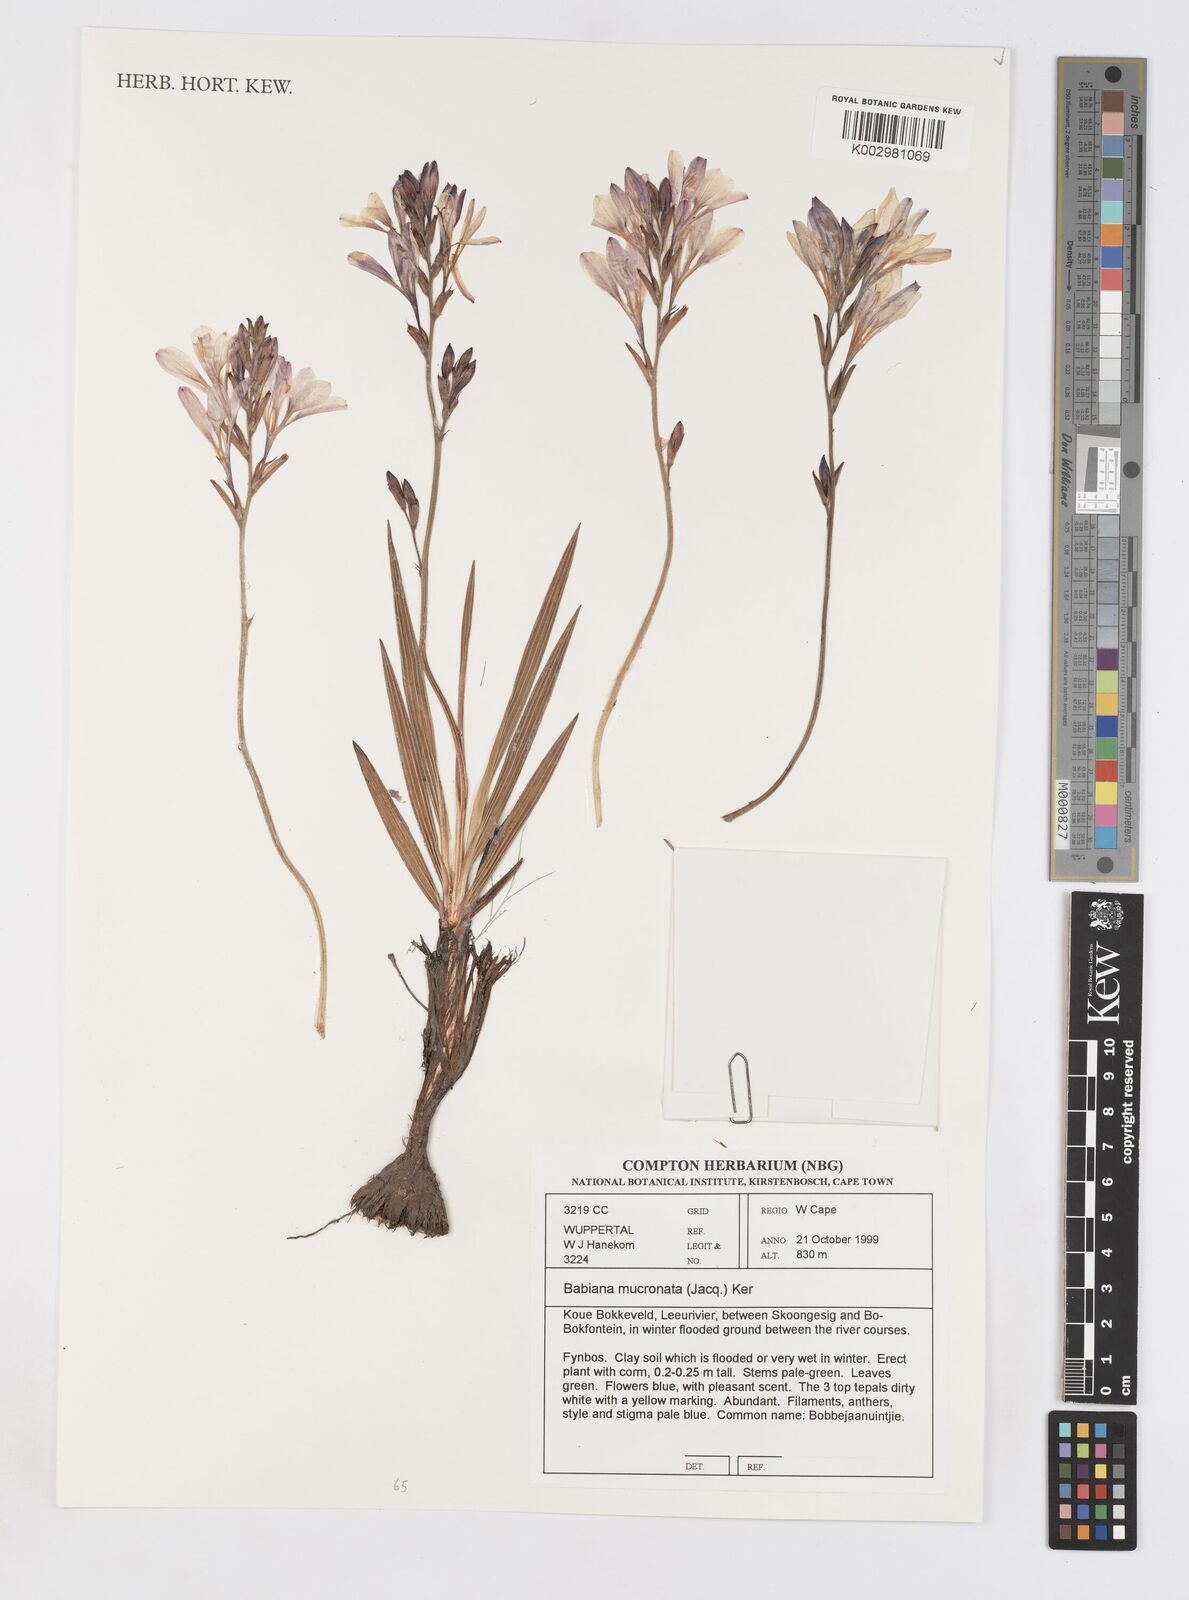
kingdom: Plantae
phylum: Tracheophyta
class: Liliopsida
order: Asparagales
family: Iridaceae
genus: Babiana
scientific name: Babiana mucronata
